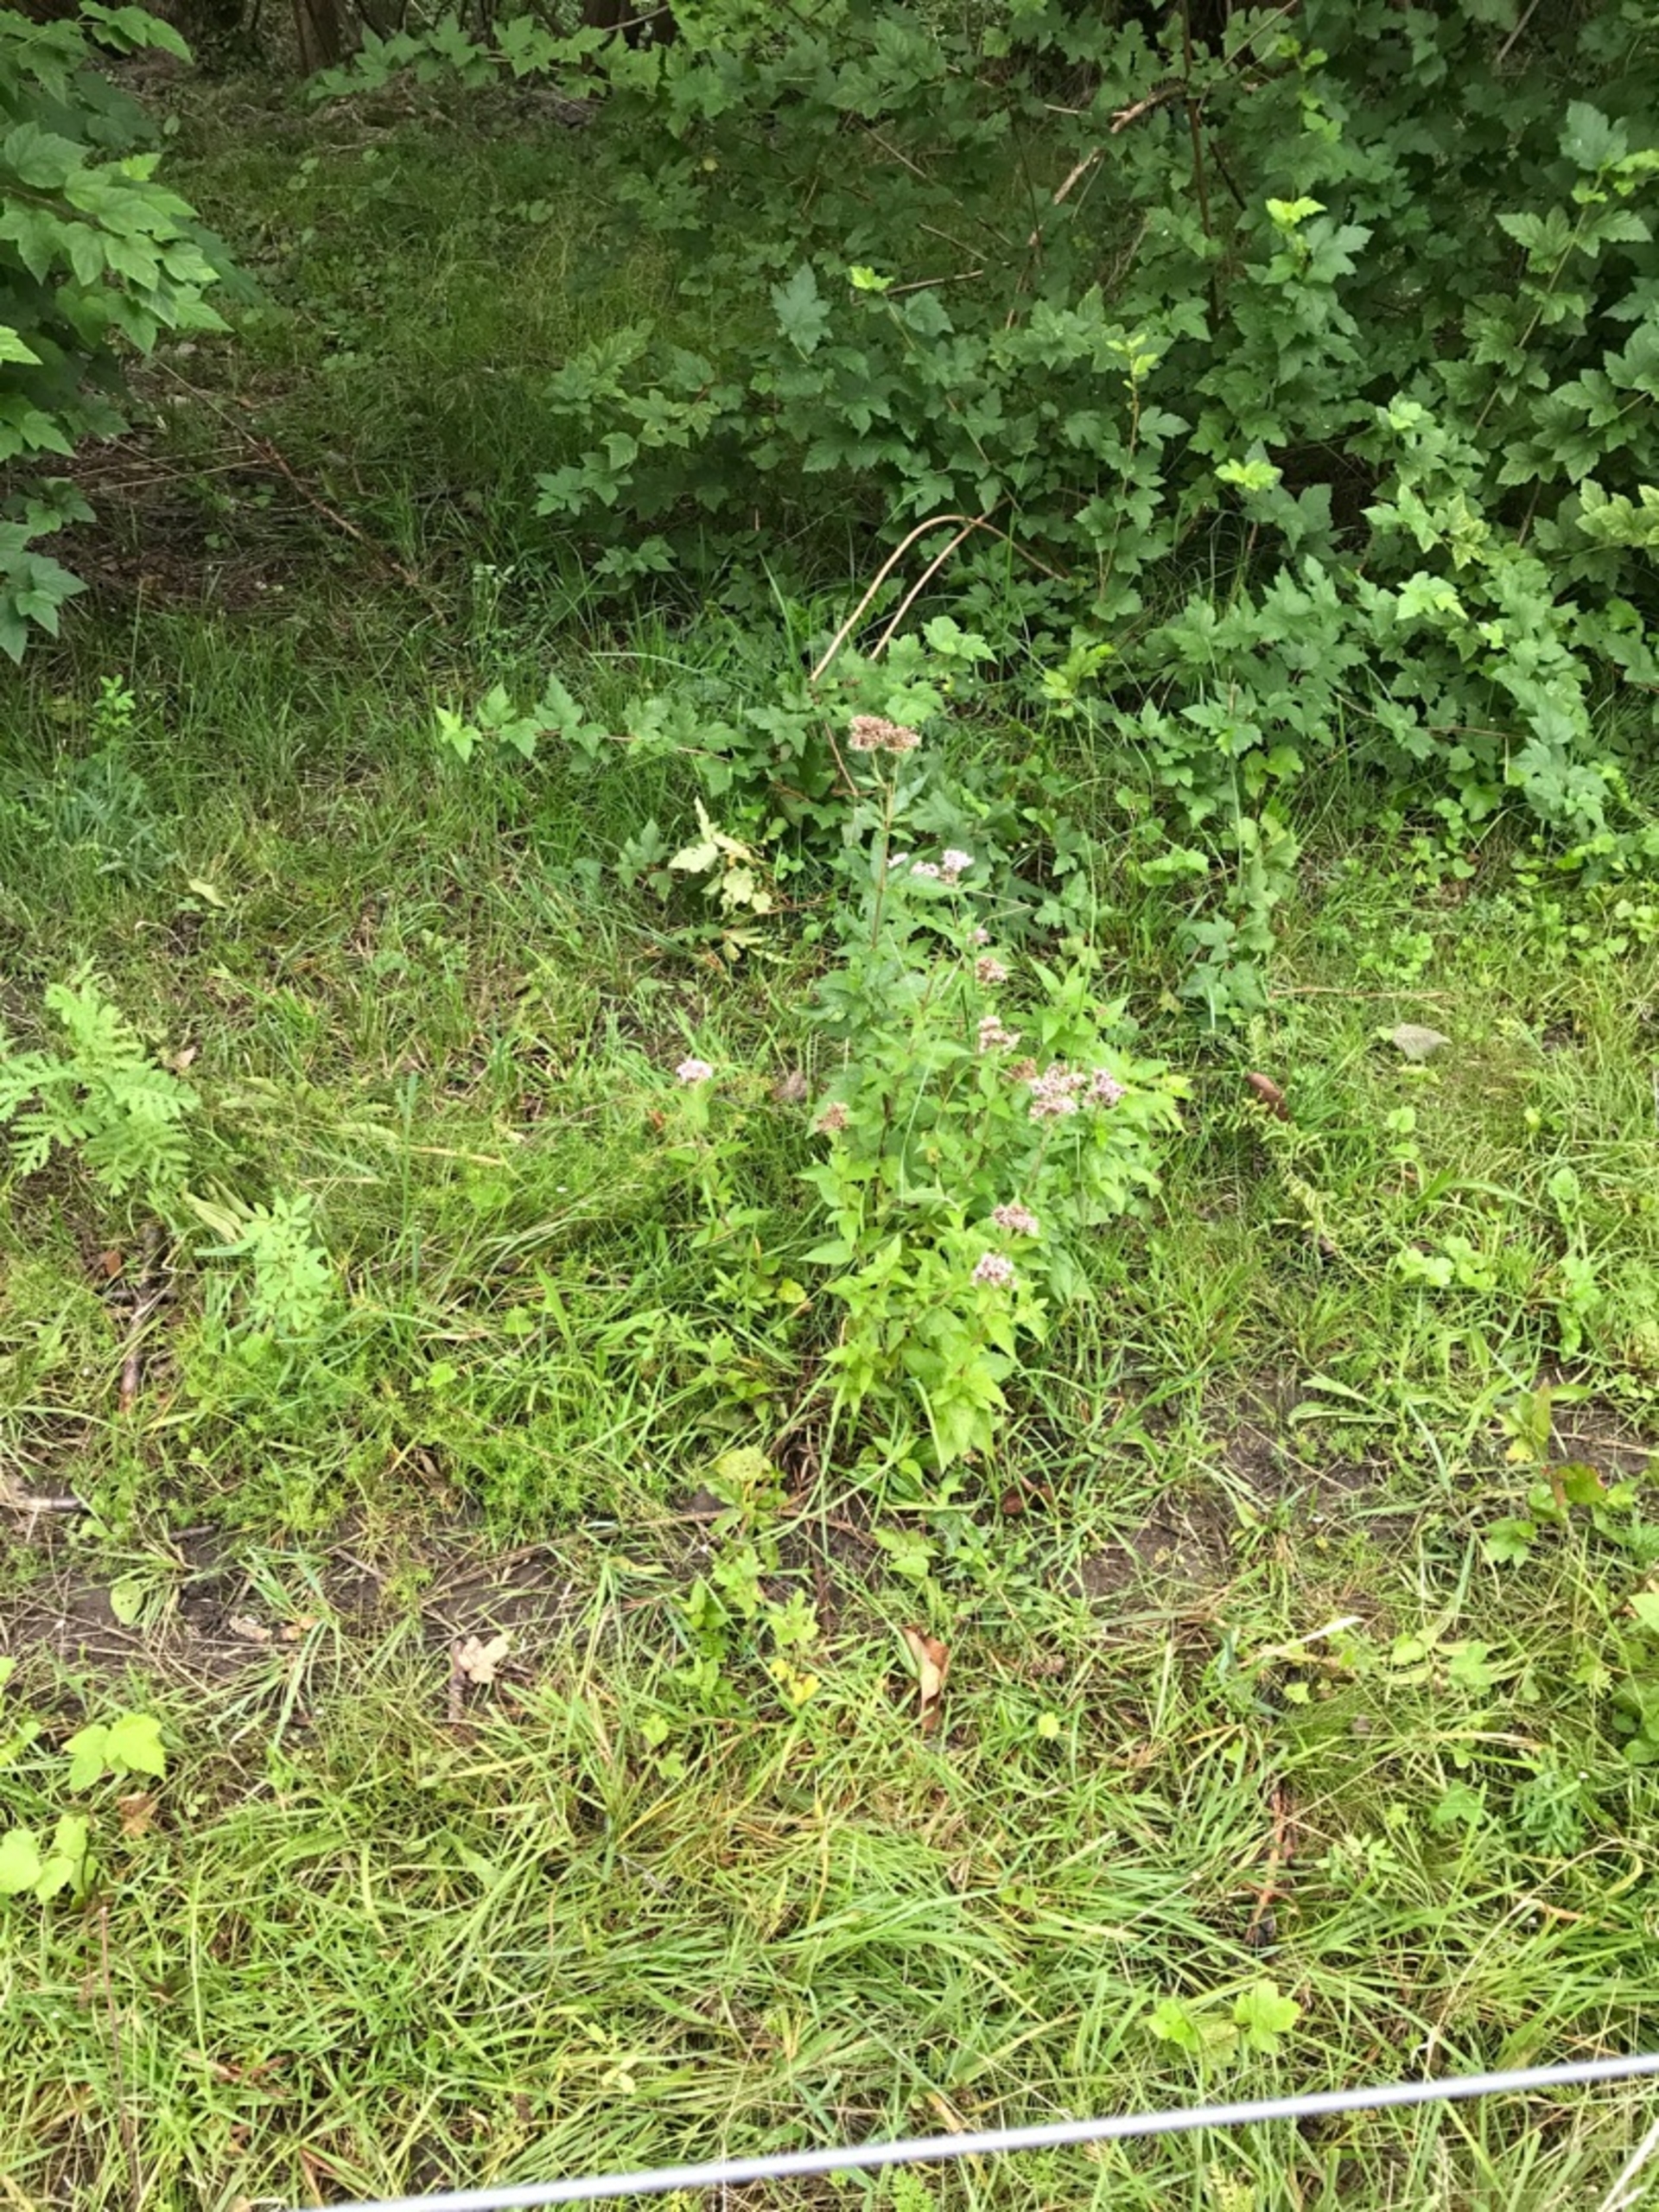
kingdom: Plantae
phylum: Tracheophyta
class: Magnoliopsida
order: Asterales
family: Asteraceae
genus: Eupatorium
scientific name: Eupatorium cannabinum
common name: Hjortetrøst
